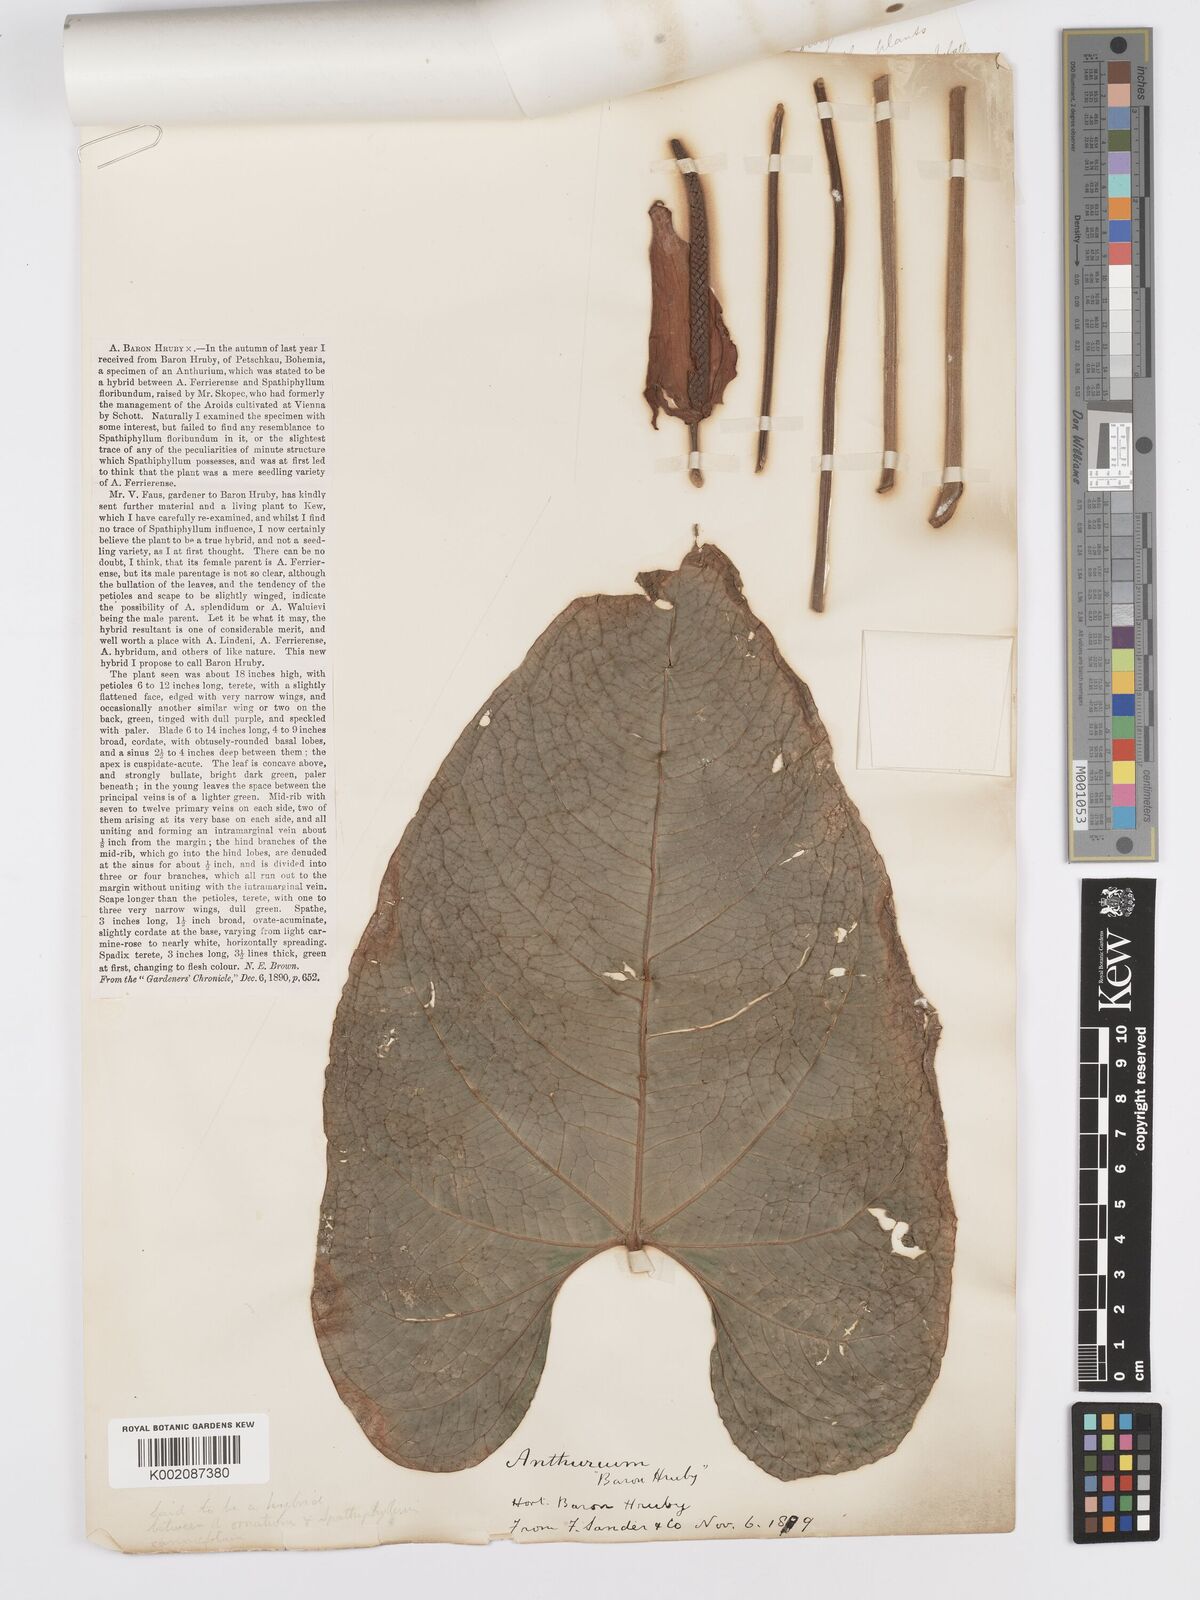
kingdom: Plantae
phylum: Tracheophyta
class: Liliopsida
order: Alismatales
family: Araceae
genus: Anthurium
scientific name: Anthurium
